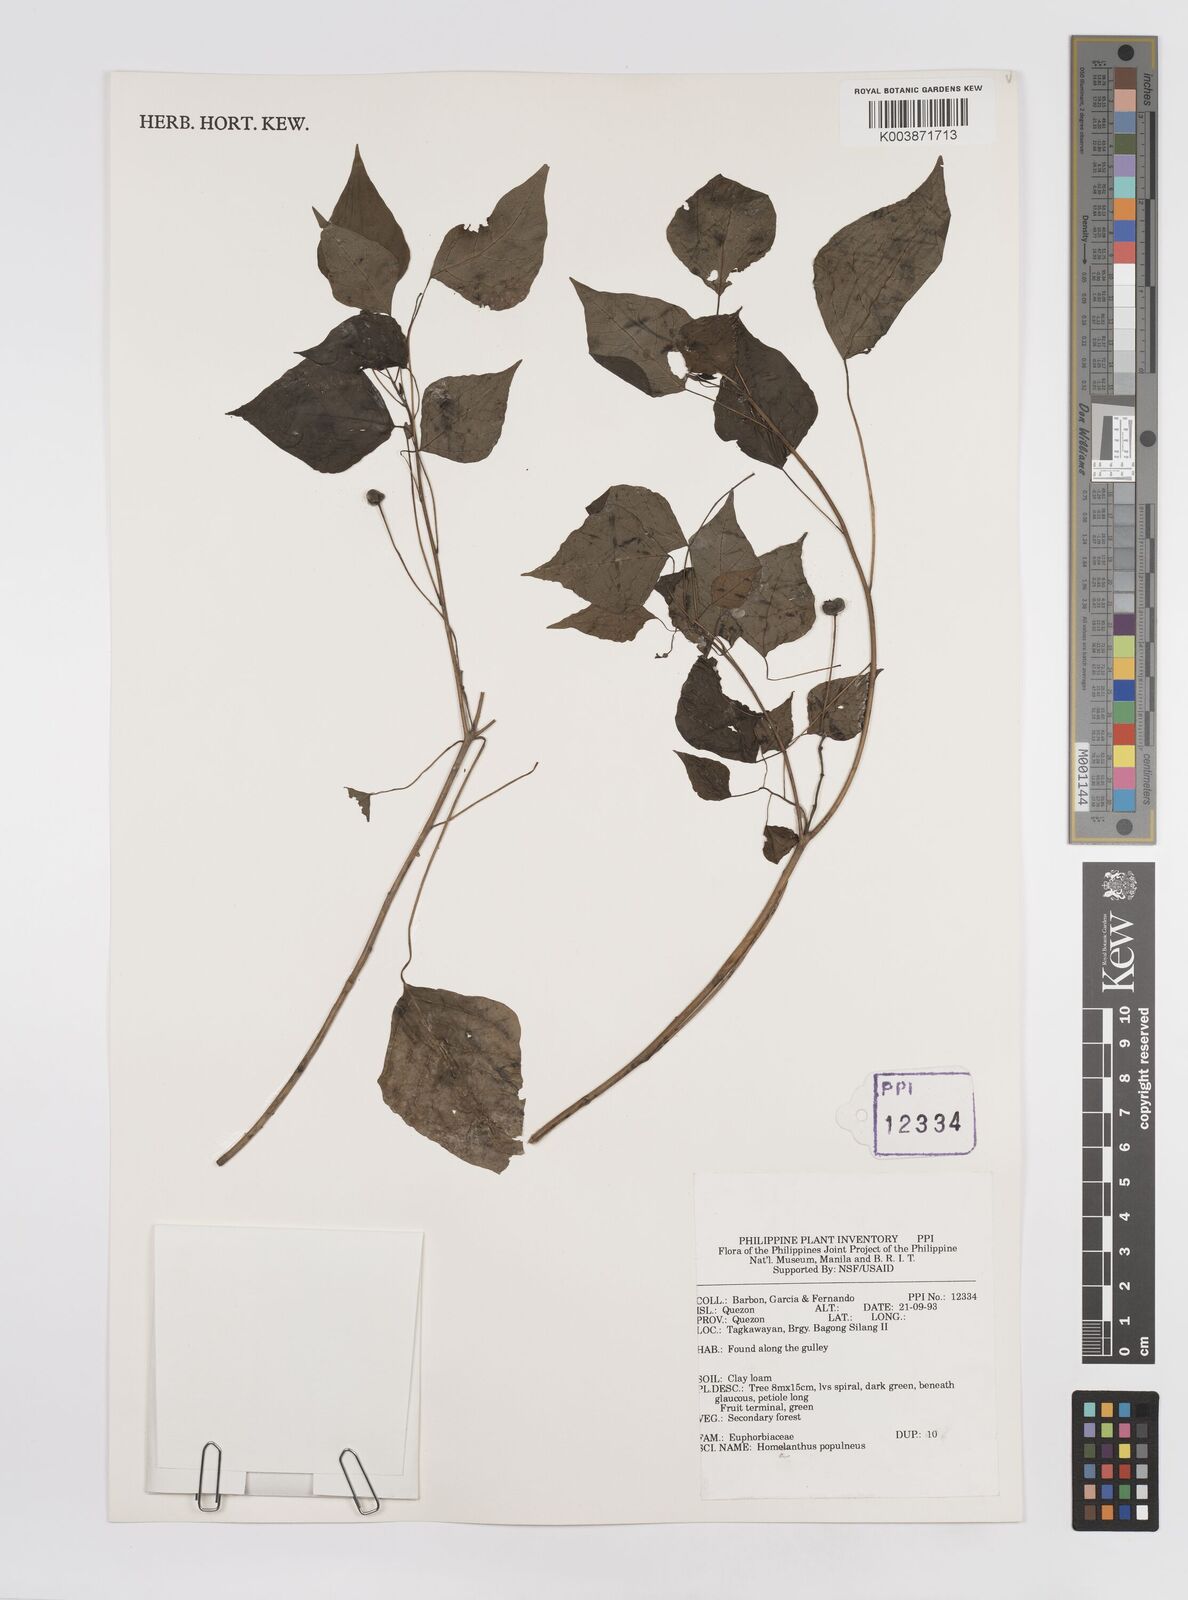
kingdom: Plantae
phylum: Tracheophyta
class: Magnoliopsida
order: Malpighiales
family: Euphorbiaceae
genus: Homalanthus
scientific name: Homalanthus populneus
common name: Spurge
